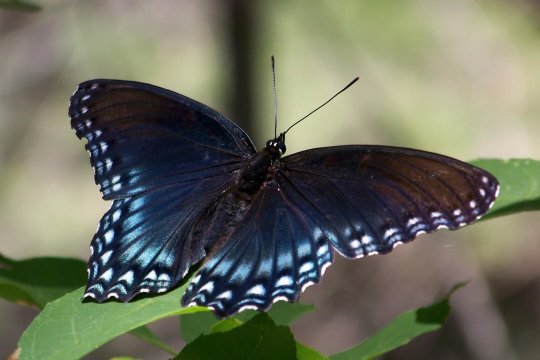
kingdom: Animalia
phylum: Arthropoda
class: Insecta
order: Lepidoptera
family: Nymphalidae
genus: Limenitis
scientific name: Limenitis arthemis
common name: Red-spotted Admiral
